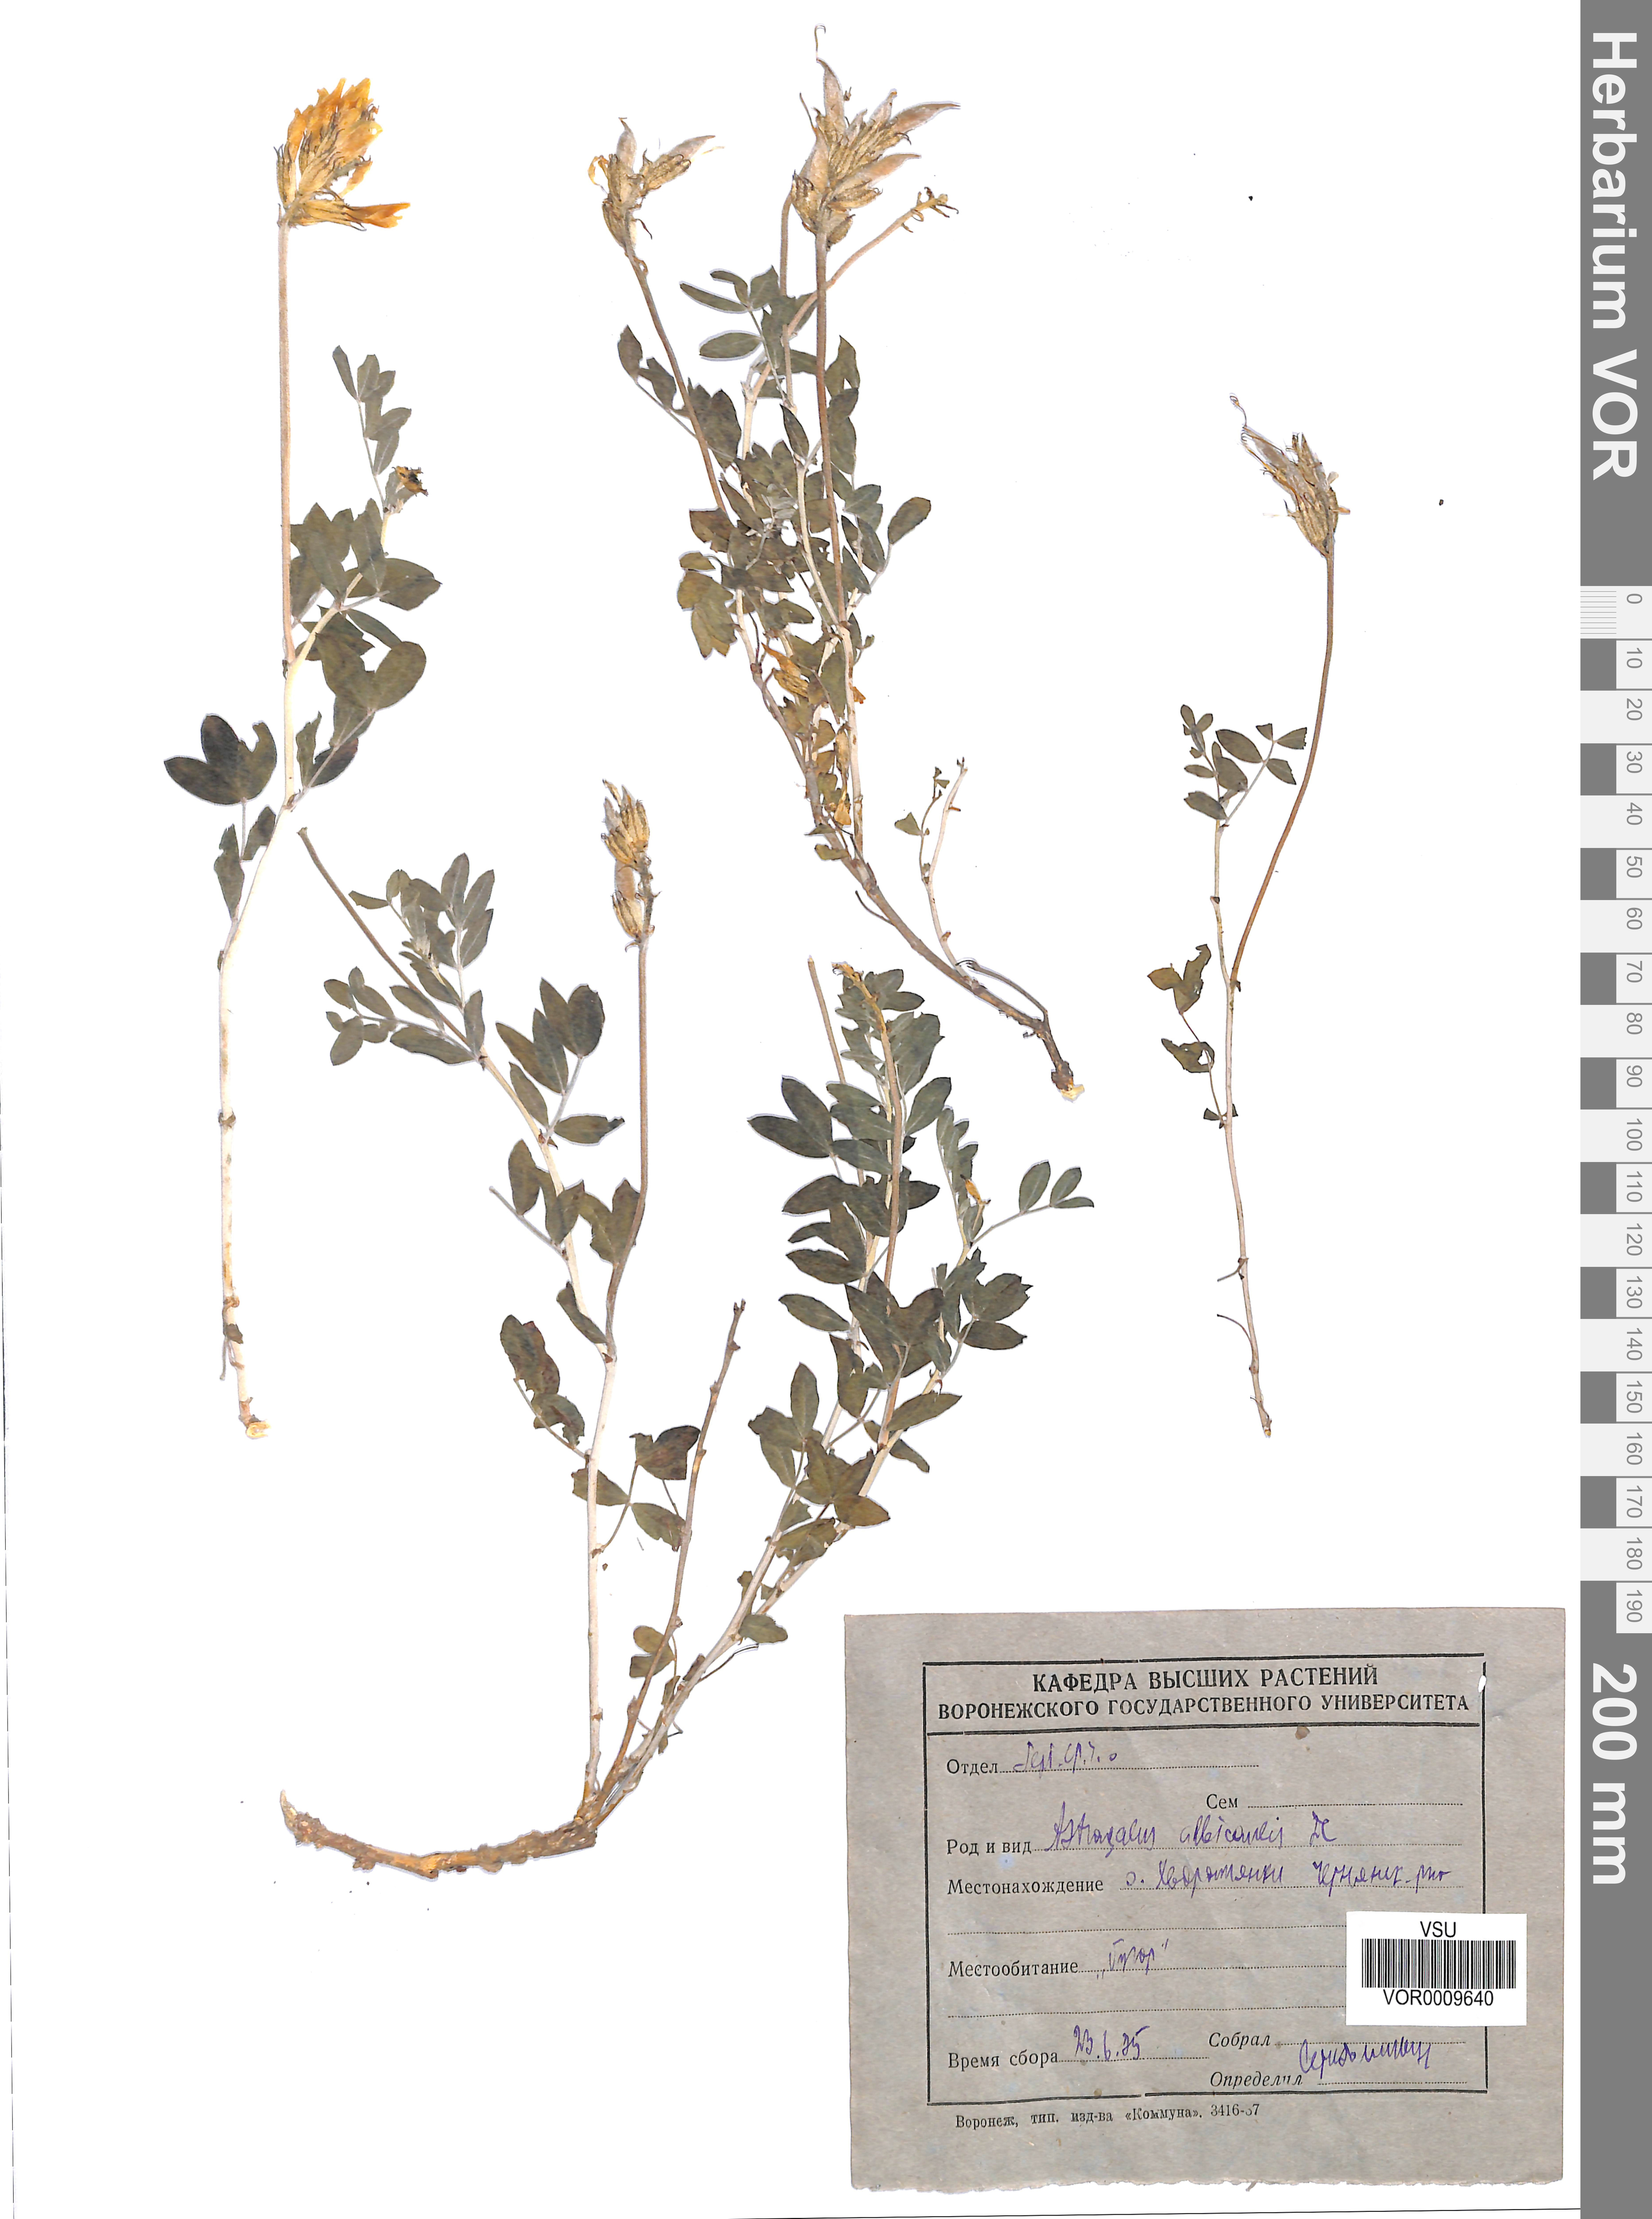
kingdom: Plantae
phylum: Tracheophyta
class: Magnoliopsida
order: Fabales
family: Fabaceae
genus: Astragalus
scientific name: Astragalus albicaulis
